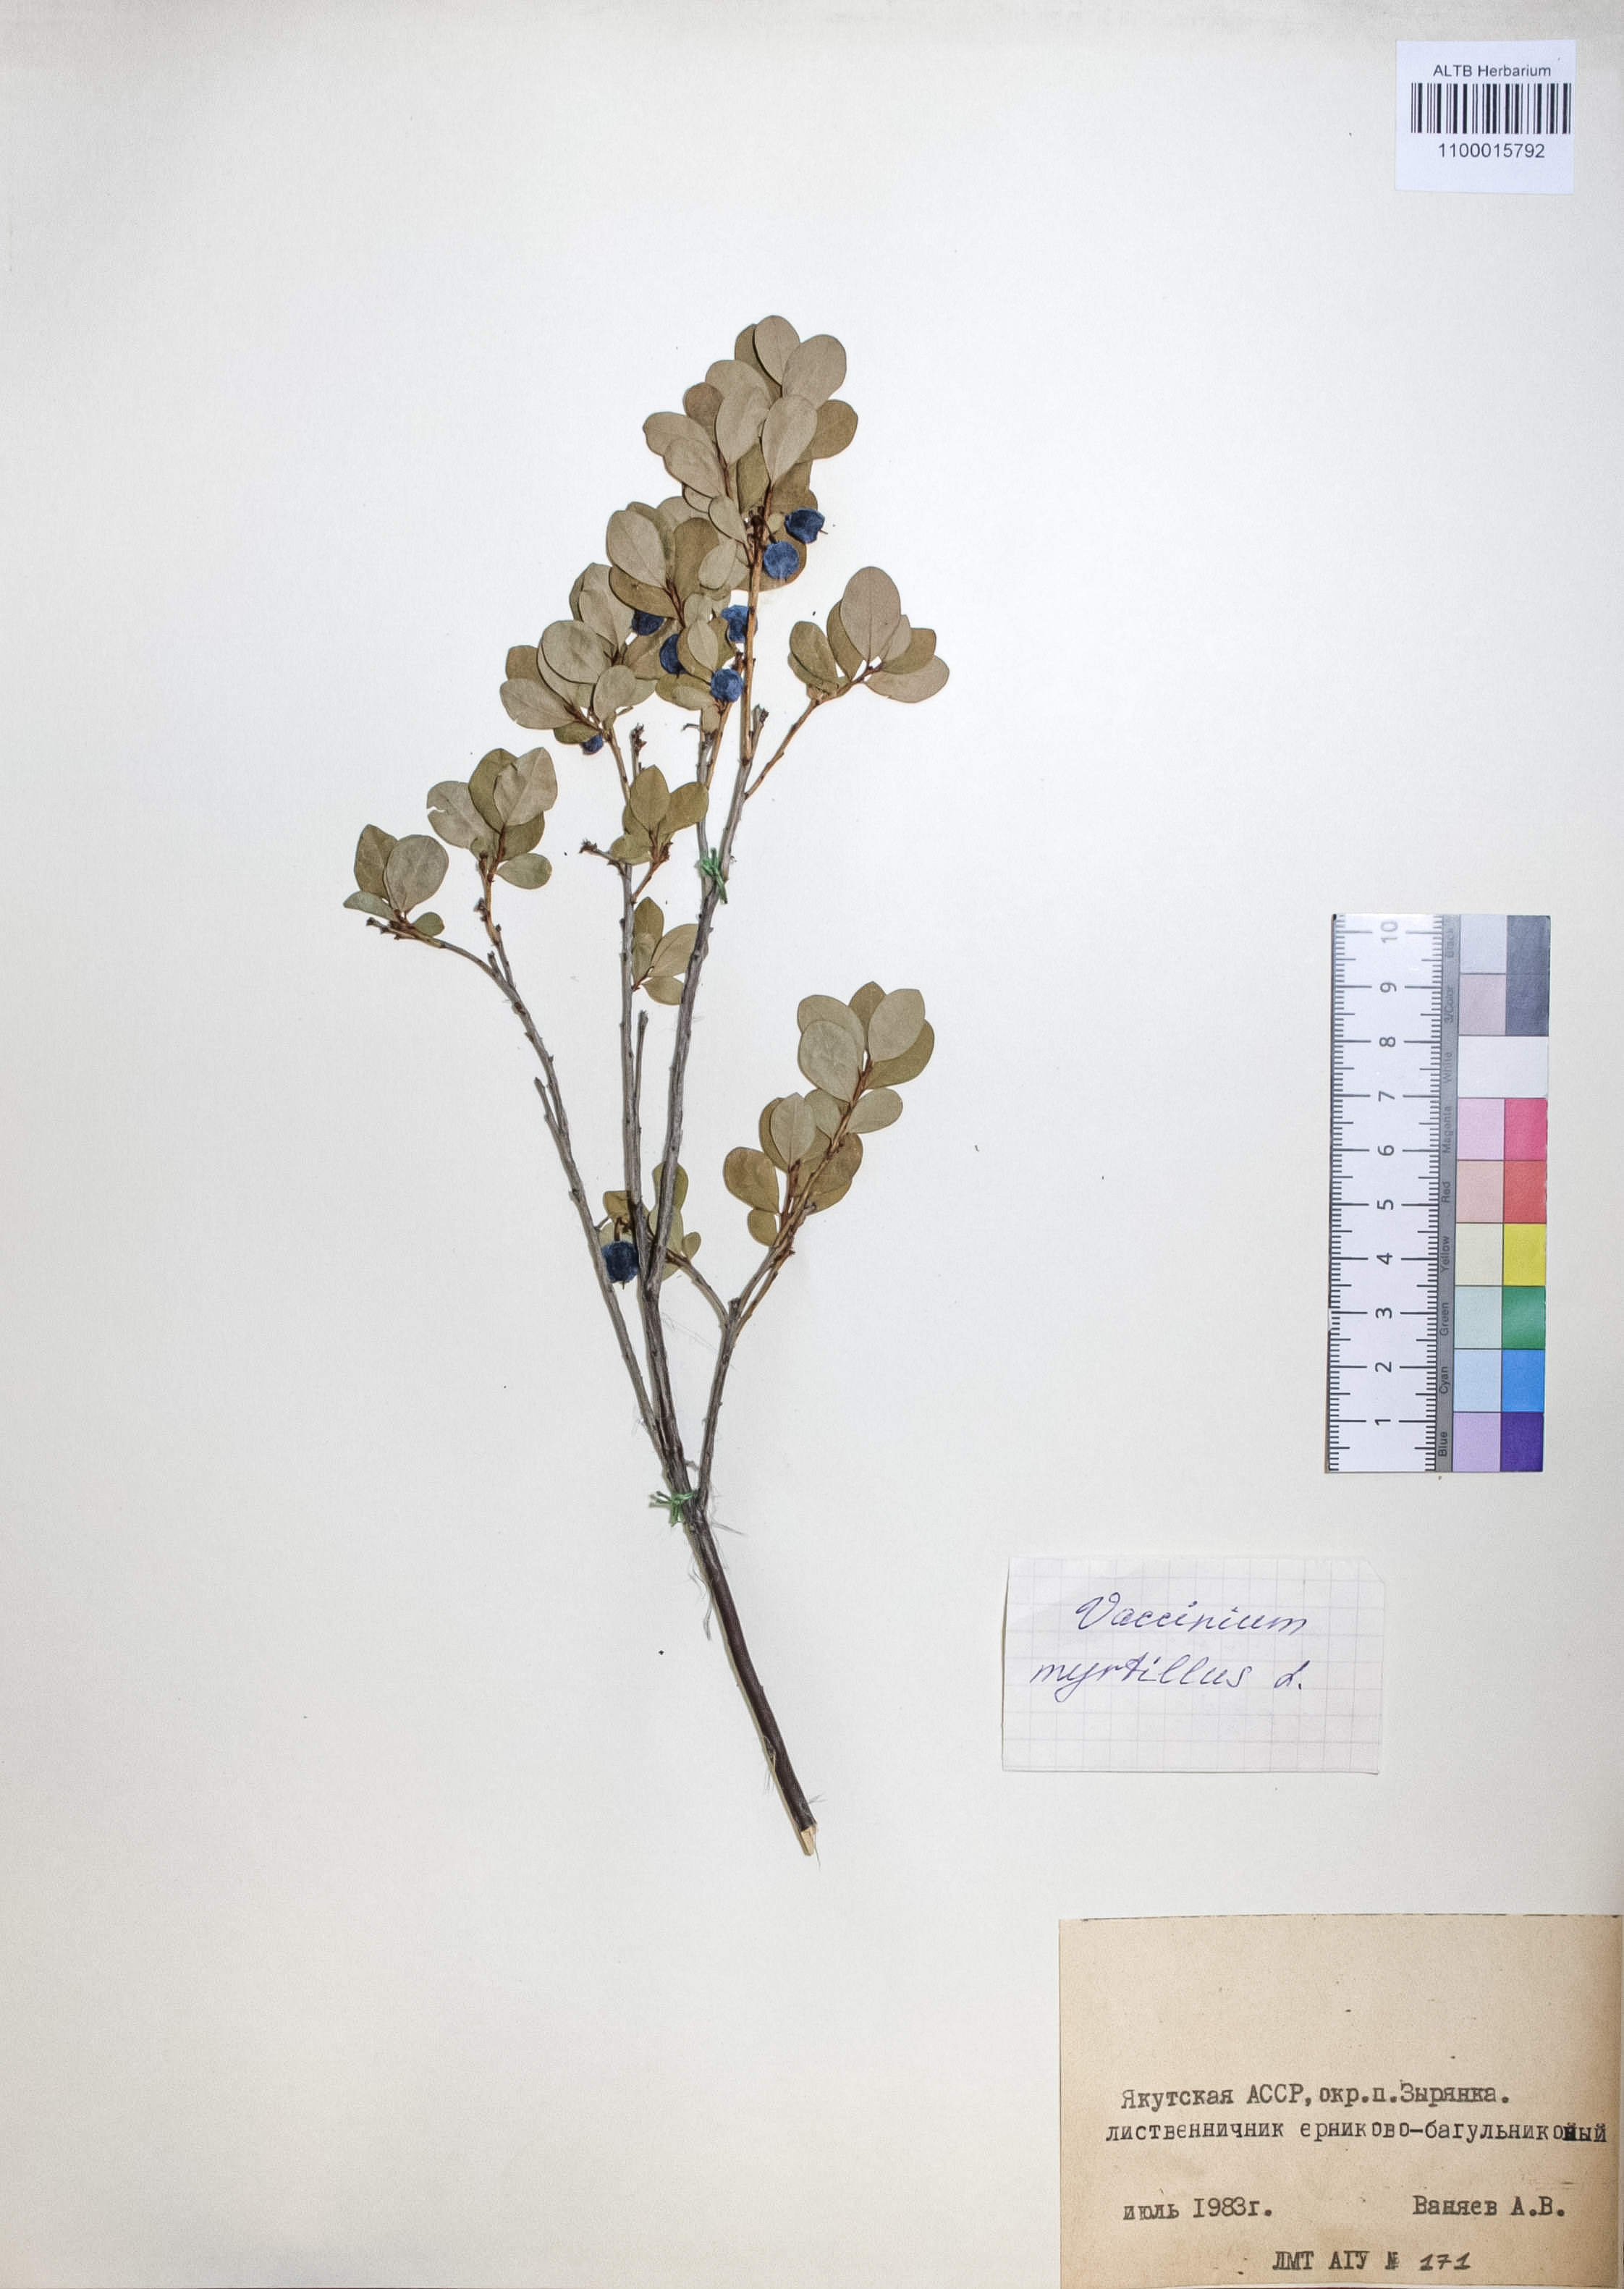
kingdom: Plantae
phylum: Tracheophyta
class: Magnoliopsida
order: Ericales
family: Ericaceae
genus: Vaccinium
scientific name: Vaccinium vitis-idaea
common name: Cowberry
